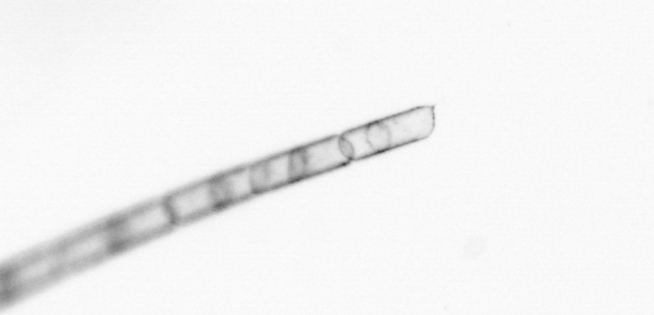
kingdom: Chromista
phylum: Ochrophyta
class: Bacillariophyceae
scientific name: Bacillariophyceae
